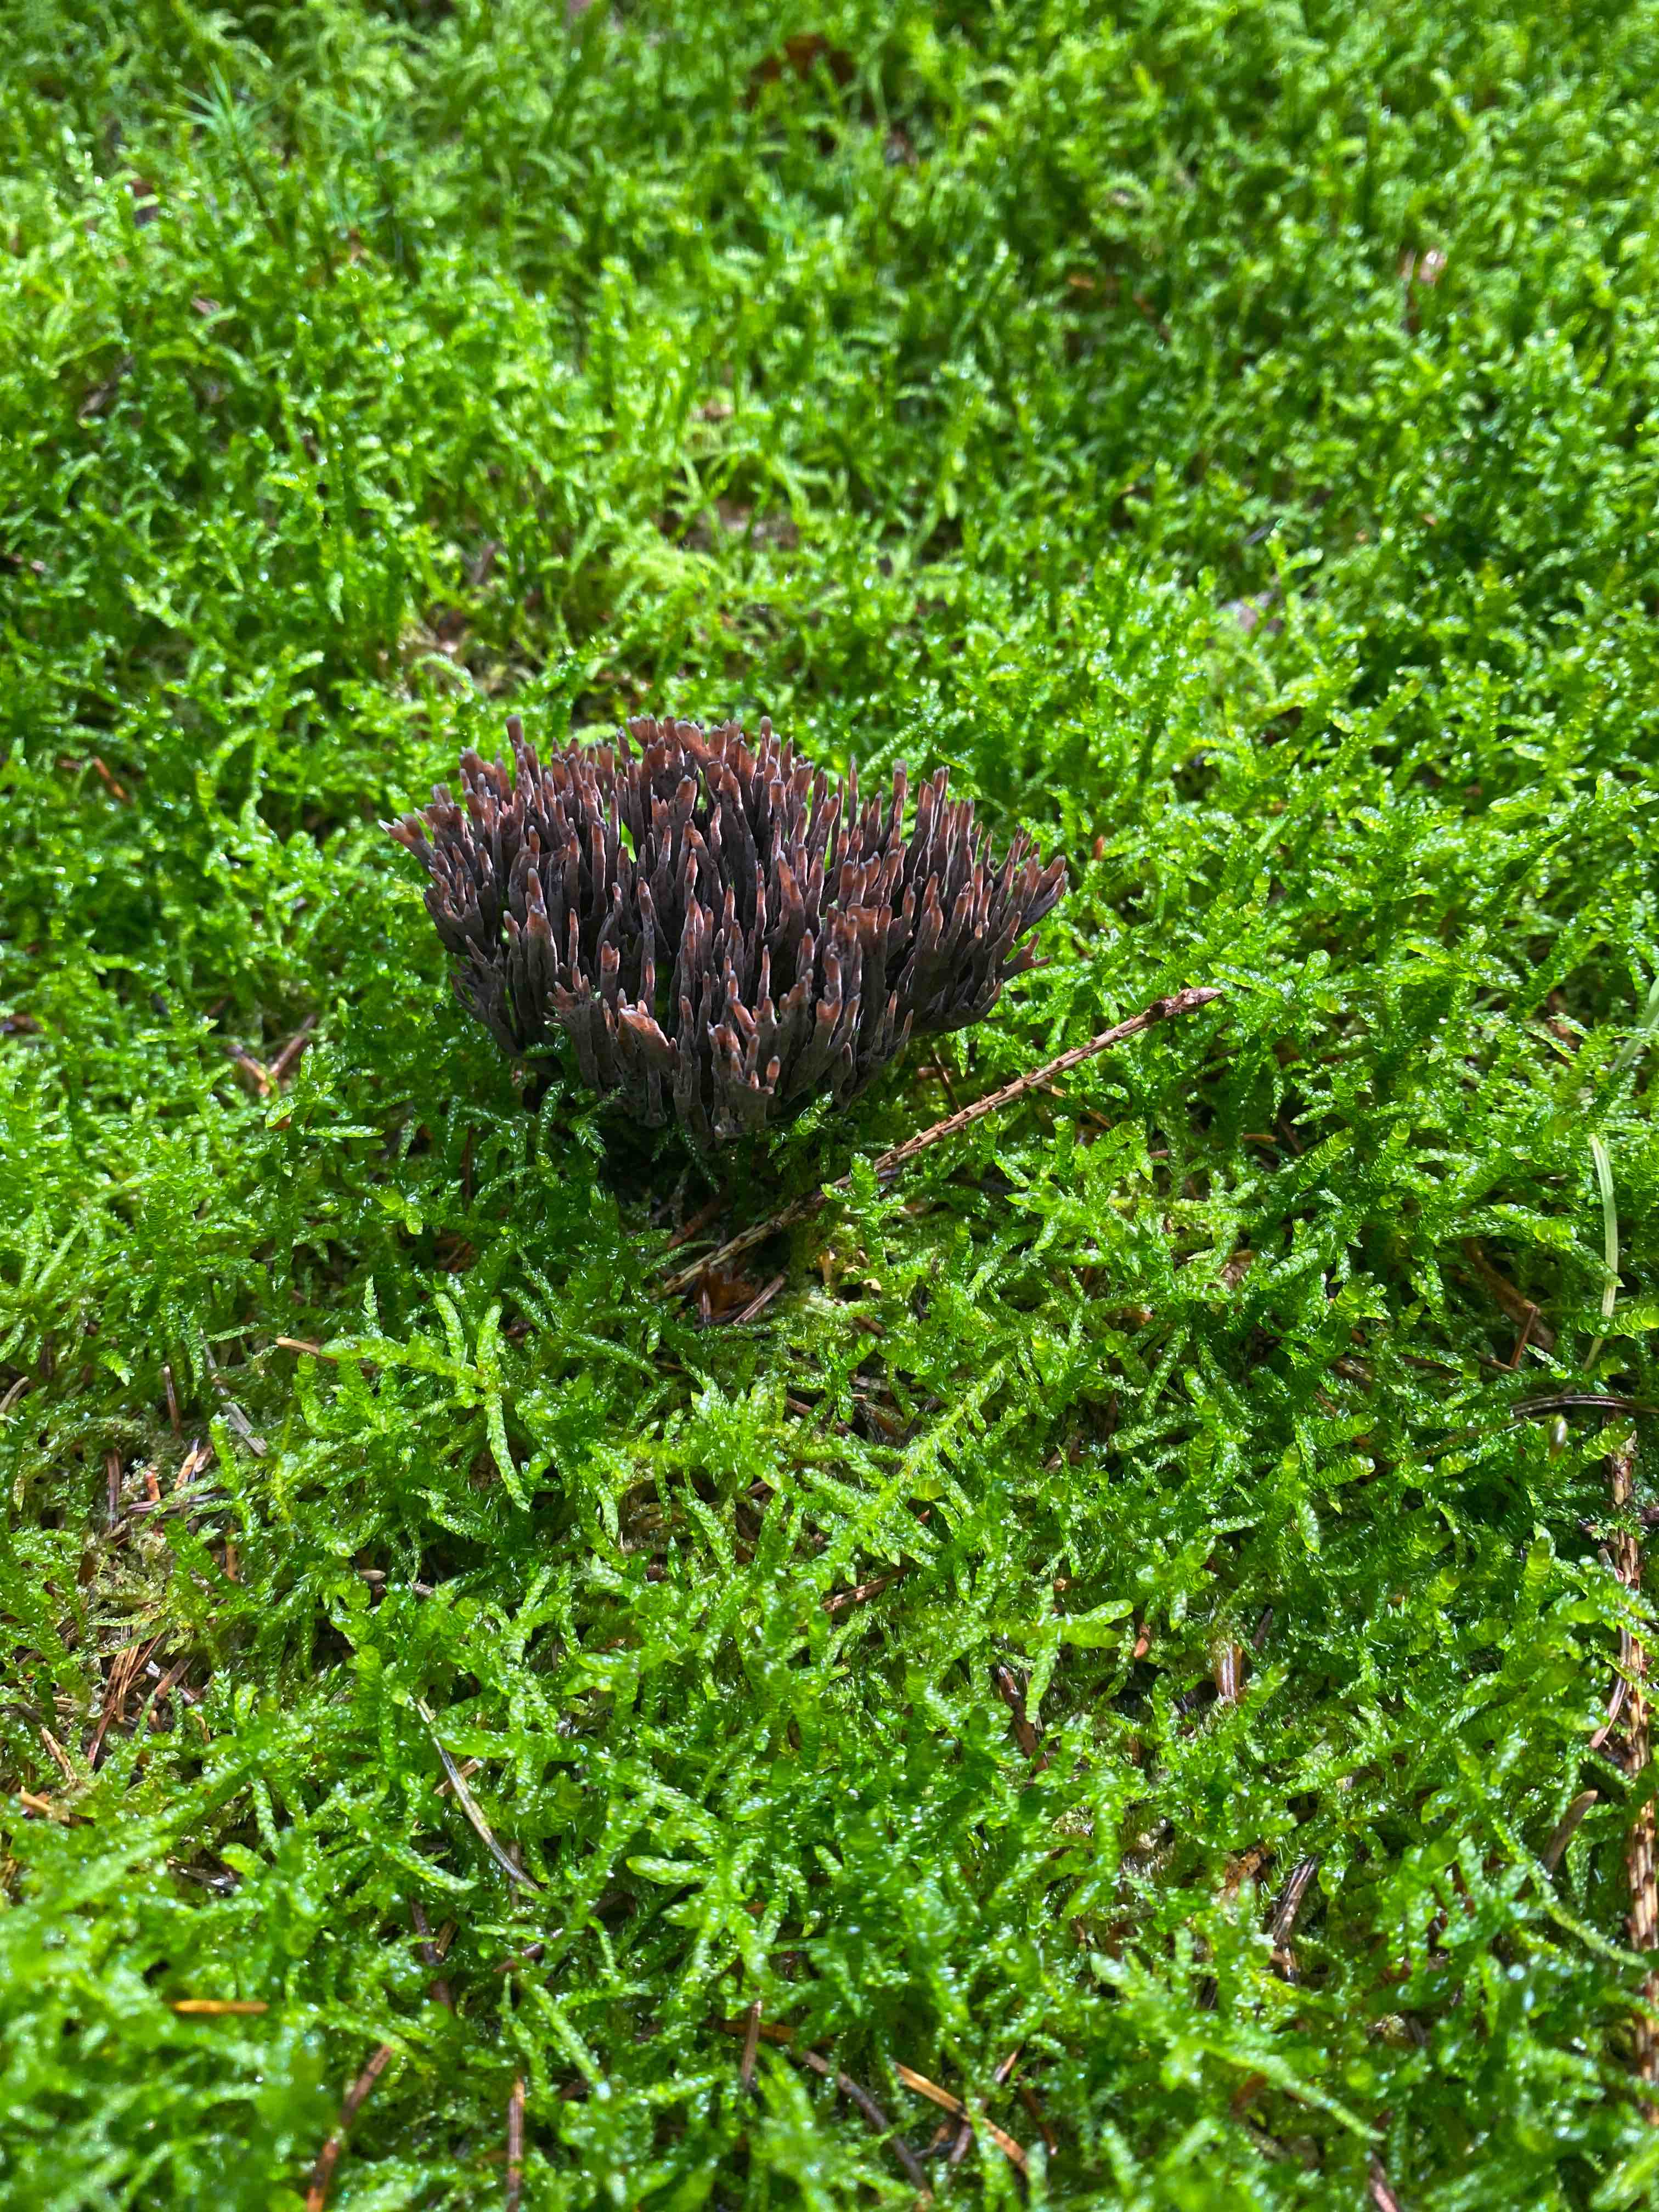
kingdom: Fungi
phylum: Basidiomycota
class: Agaricomycetes
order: Thelephorales
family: Thelephoraceae
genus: Thelephora
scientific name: Thelephora palmata
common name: grenet frynsesvamp
